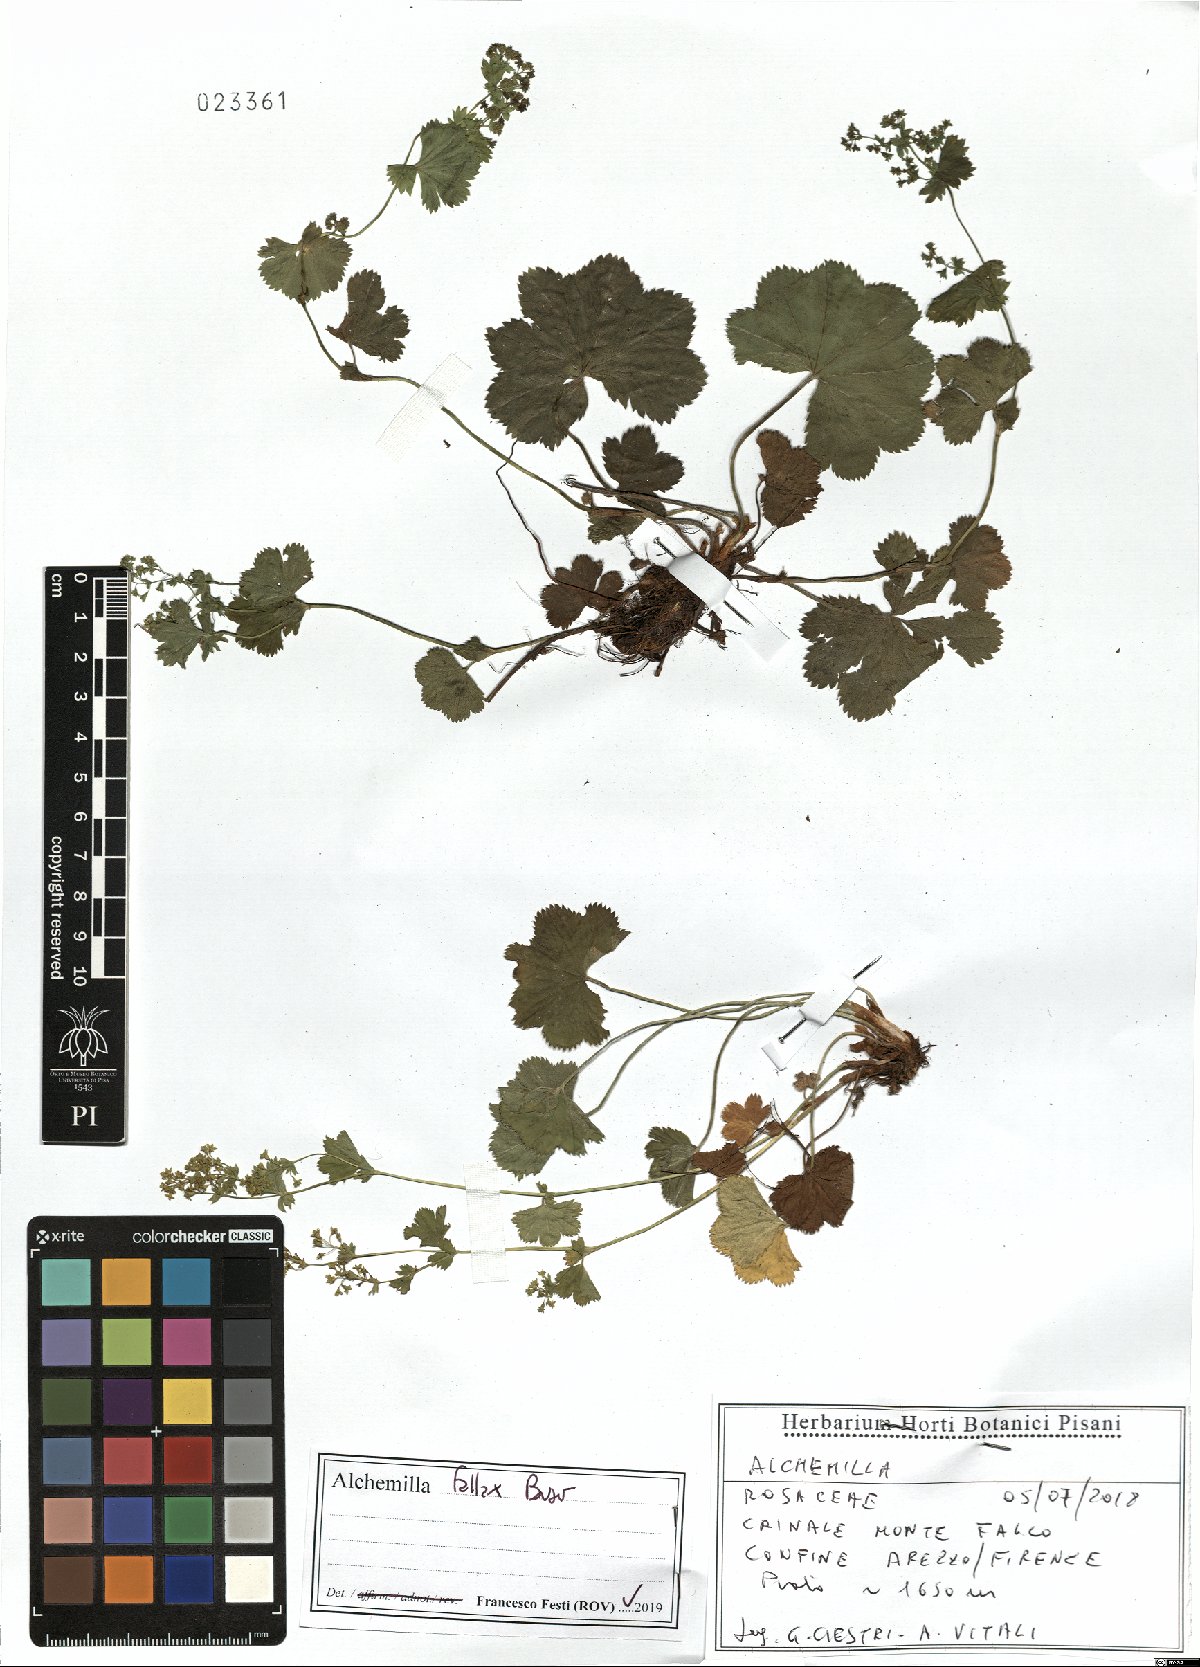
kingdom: Plantae
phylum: Tracheophyta
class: Magnoliopsida
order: Rosales
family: Rosaceae
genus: Alchemilla
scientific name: Alchemilla fallax
